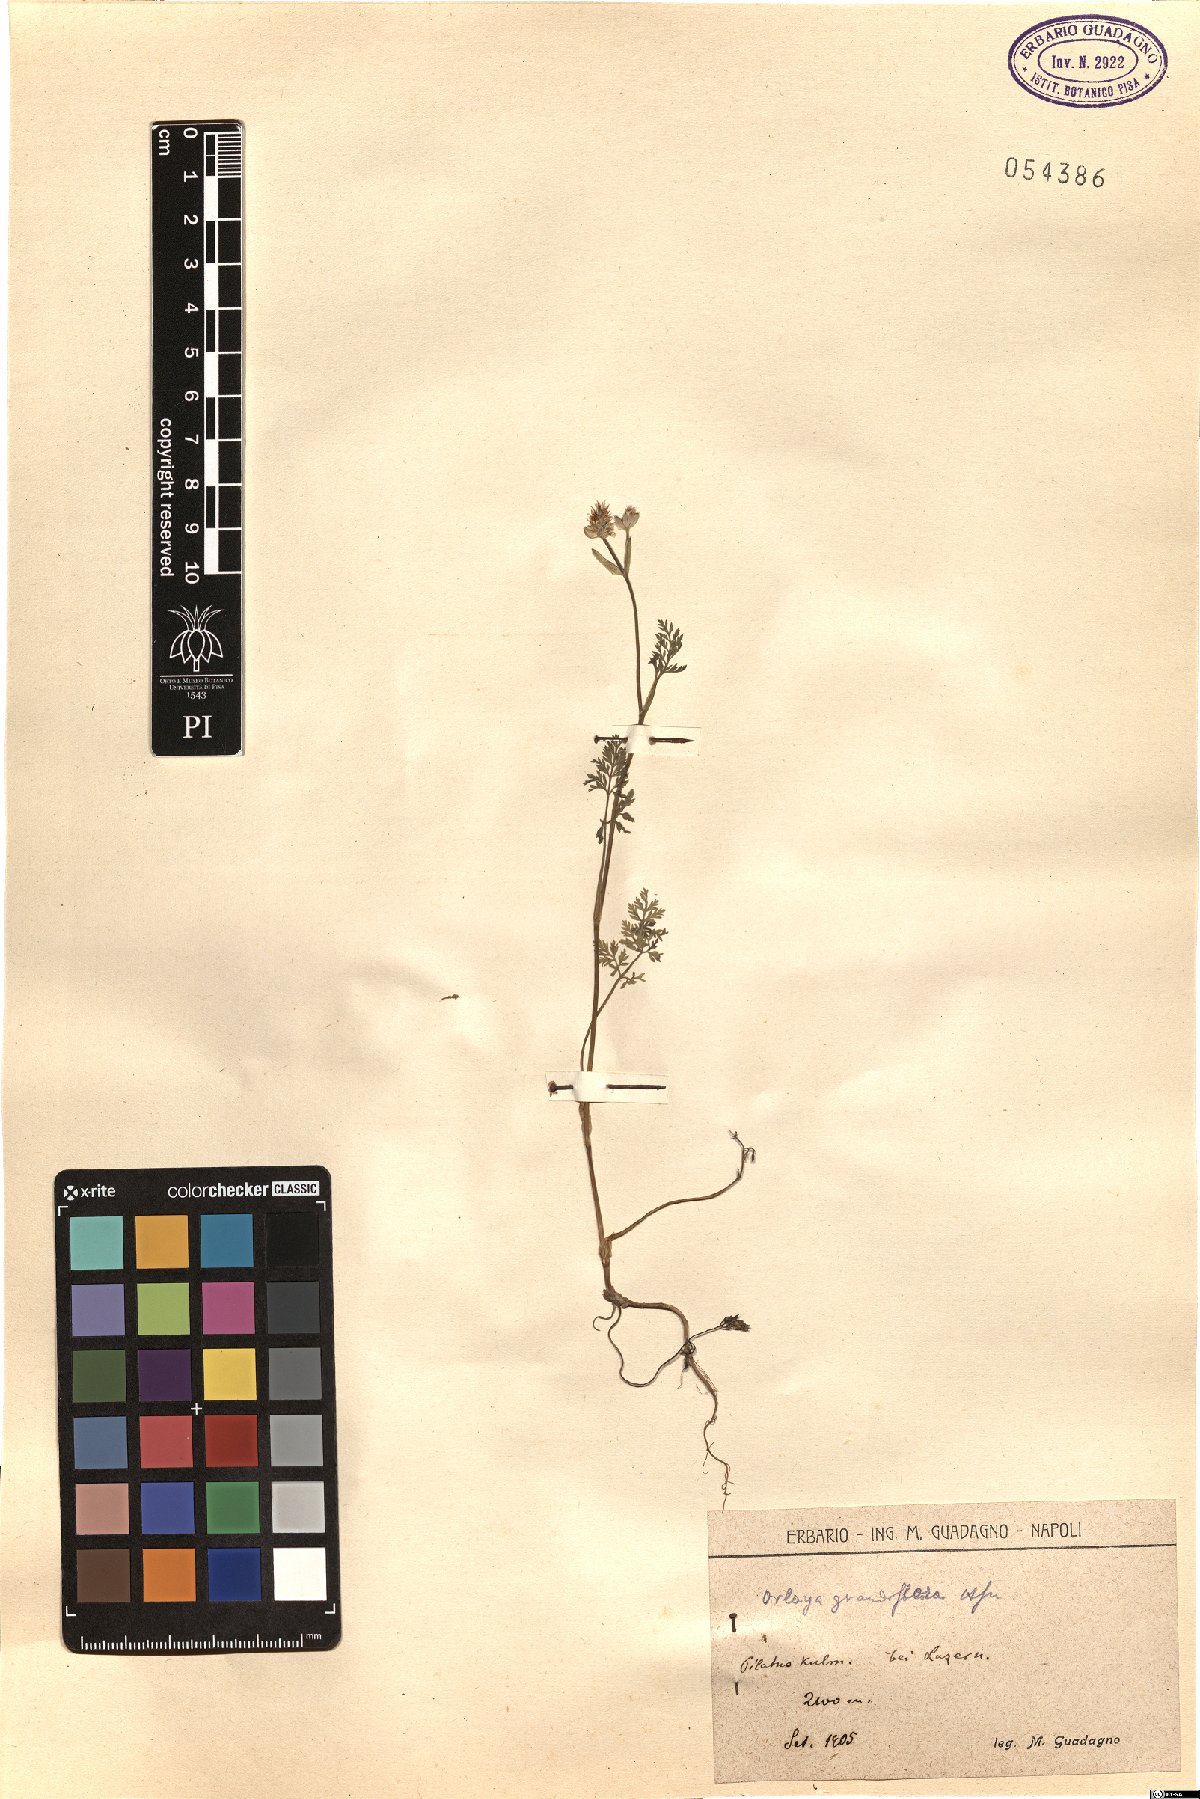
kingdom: Plantae
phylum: Tracheophyta
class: Magnoliopsida
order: Apiales
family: Apiaceae
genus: Orlaya
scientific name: Orlaya grandiflora
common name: White lace flower
